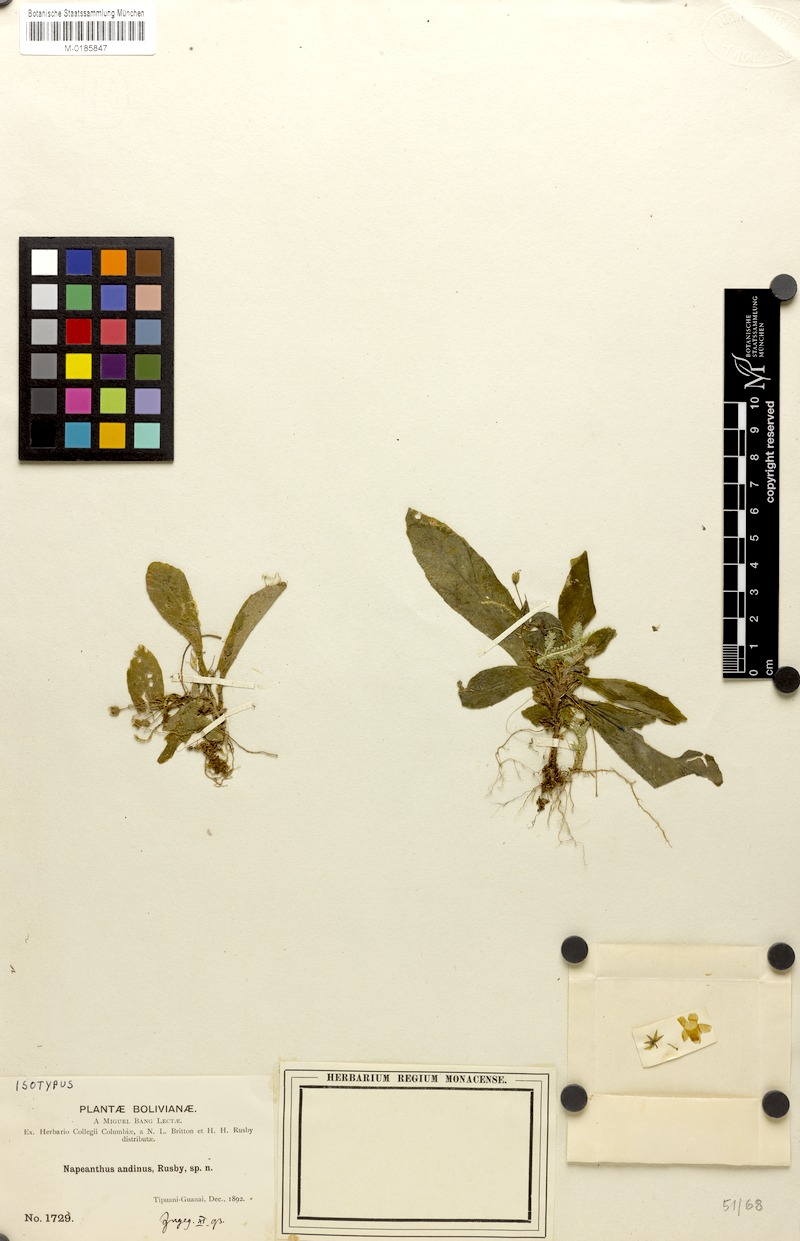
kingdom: Plantae
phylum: Tracheophyta
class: Magnoliopsida
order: Lamiales
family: Gesneriaceae
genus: Napeanthus
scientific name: Napeanthus andinus
